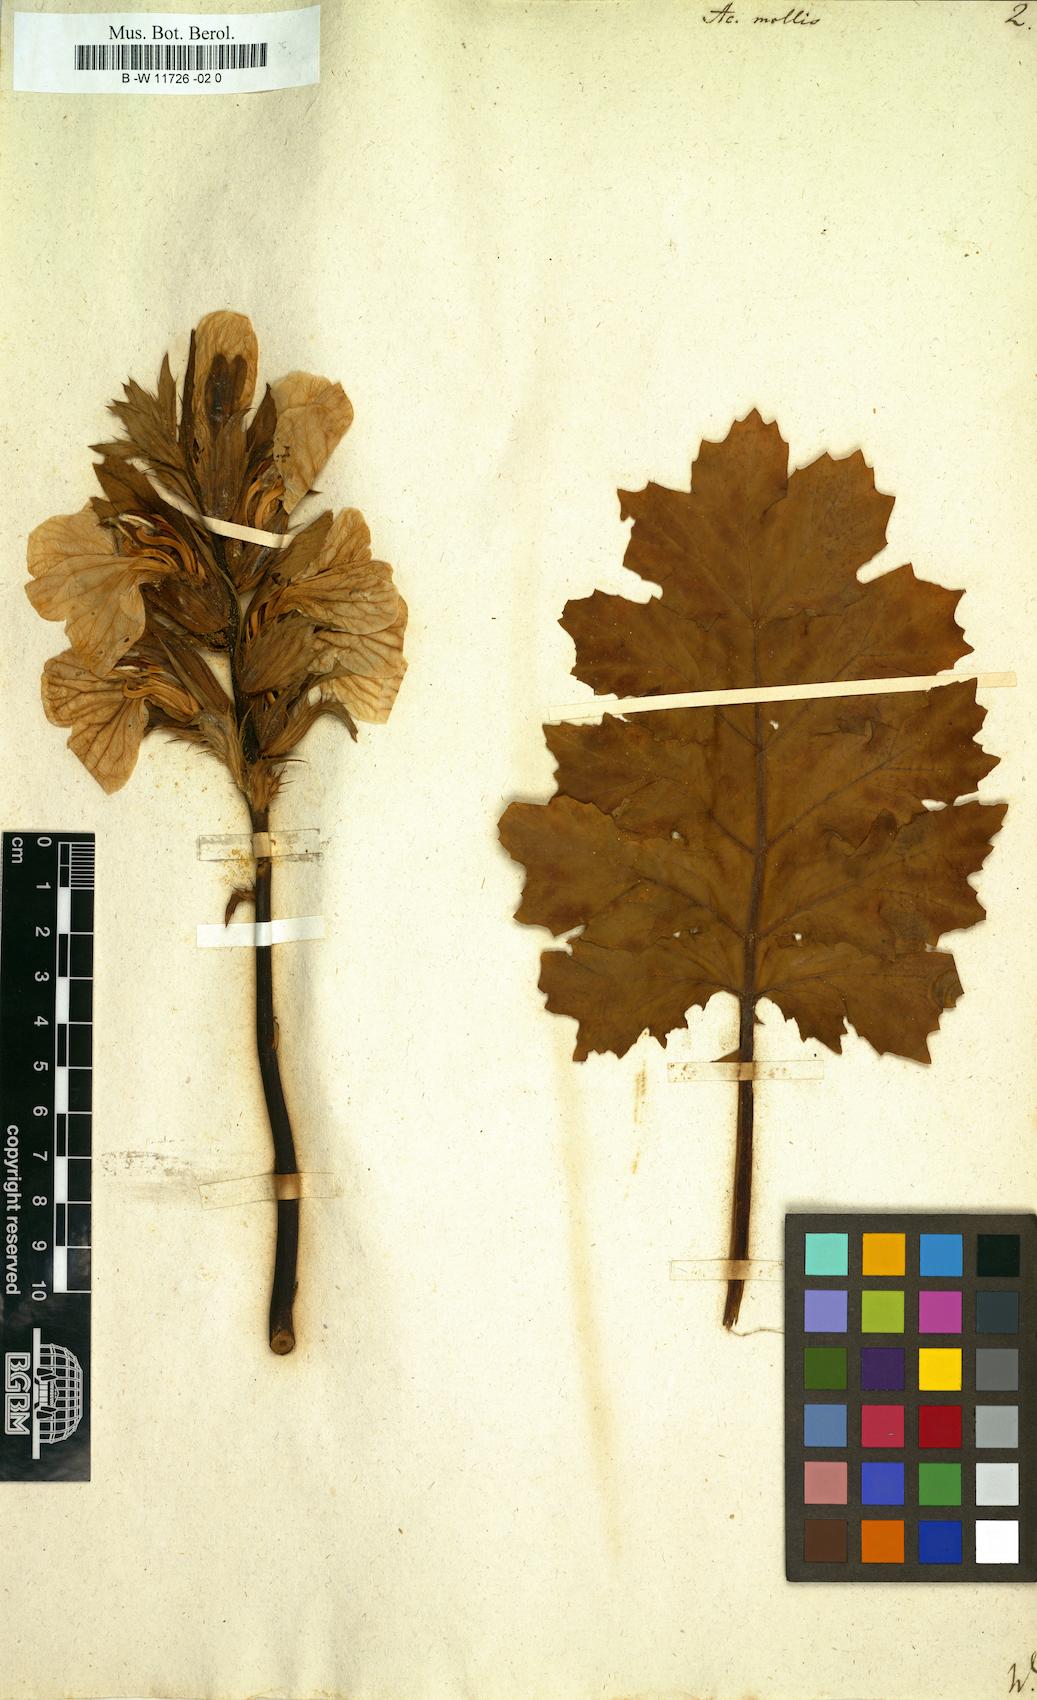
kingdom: Plantae
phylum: Tracheophyta
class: Magnoliopsida
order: Lamiales
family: Acanthaceae
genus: Acanthus
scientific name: Acanthus mollis
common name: Bear's-breech
